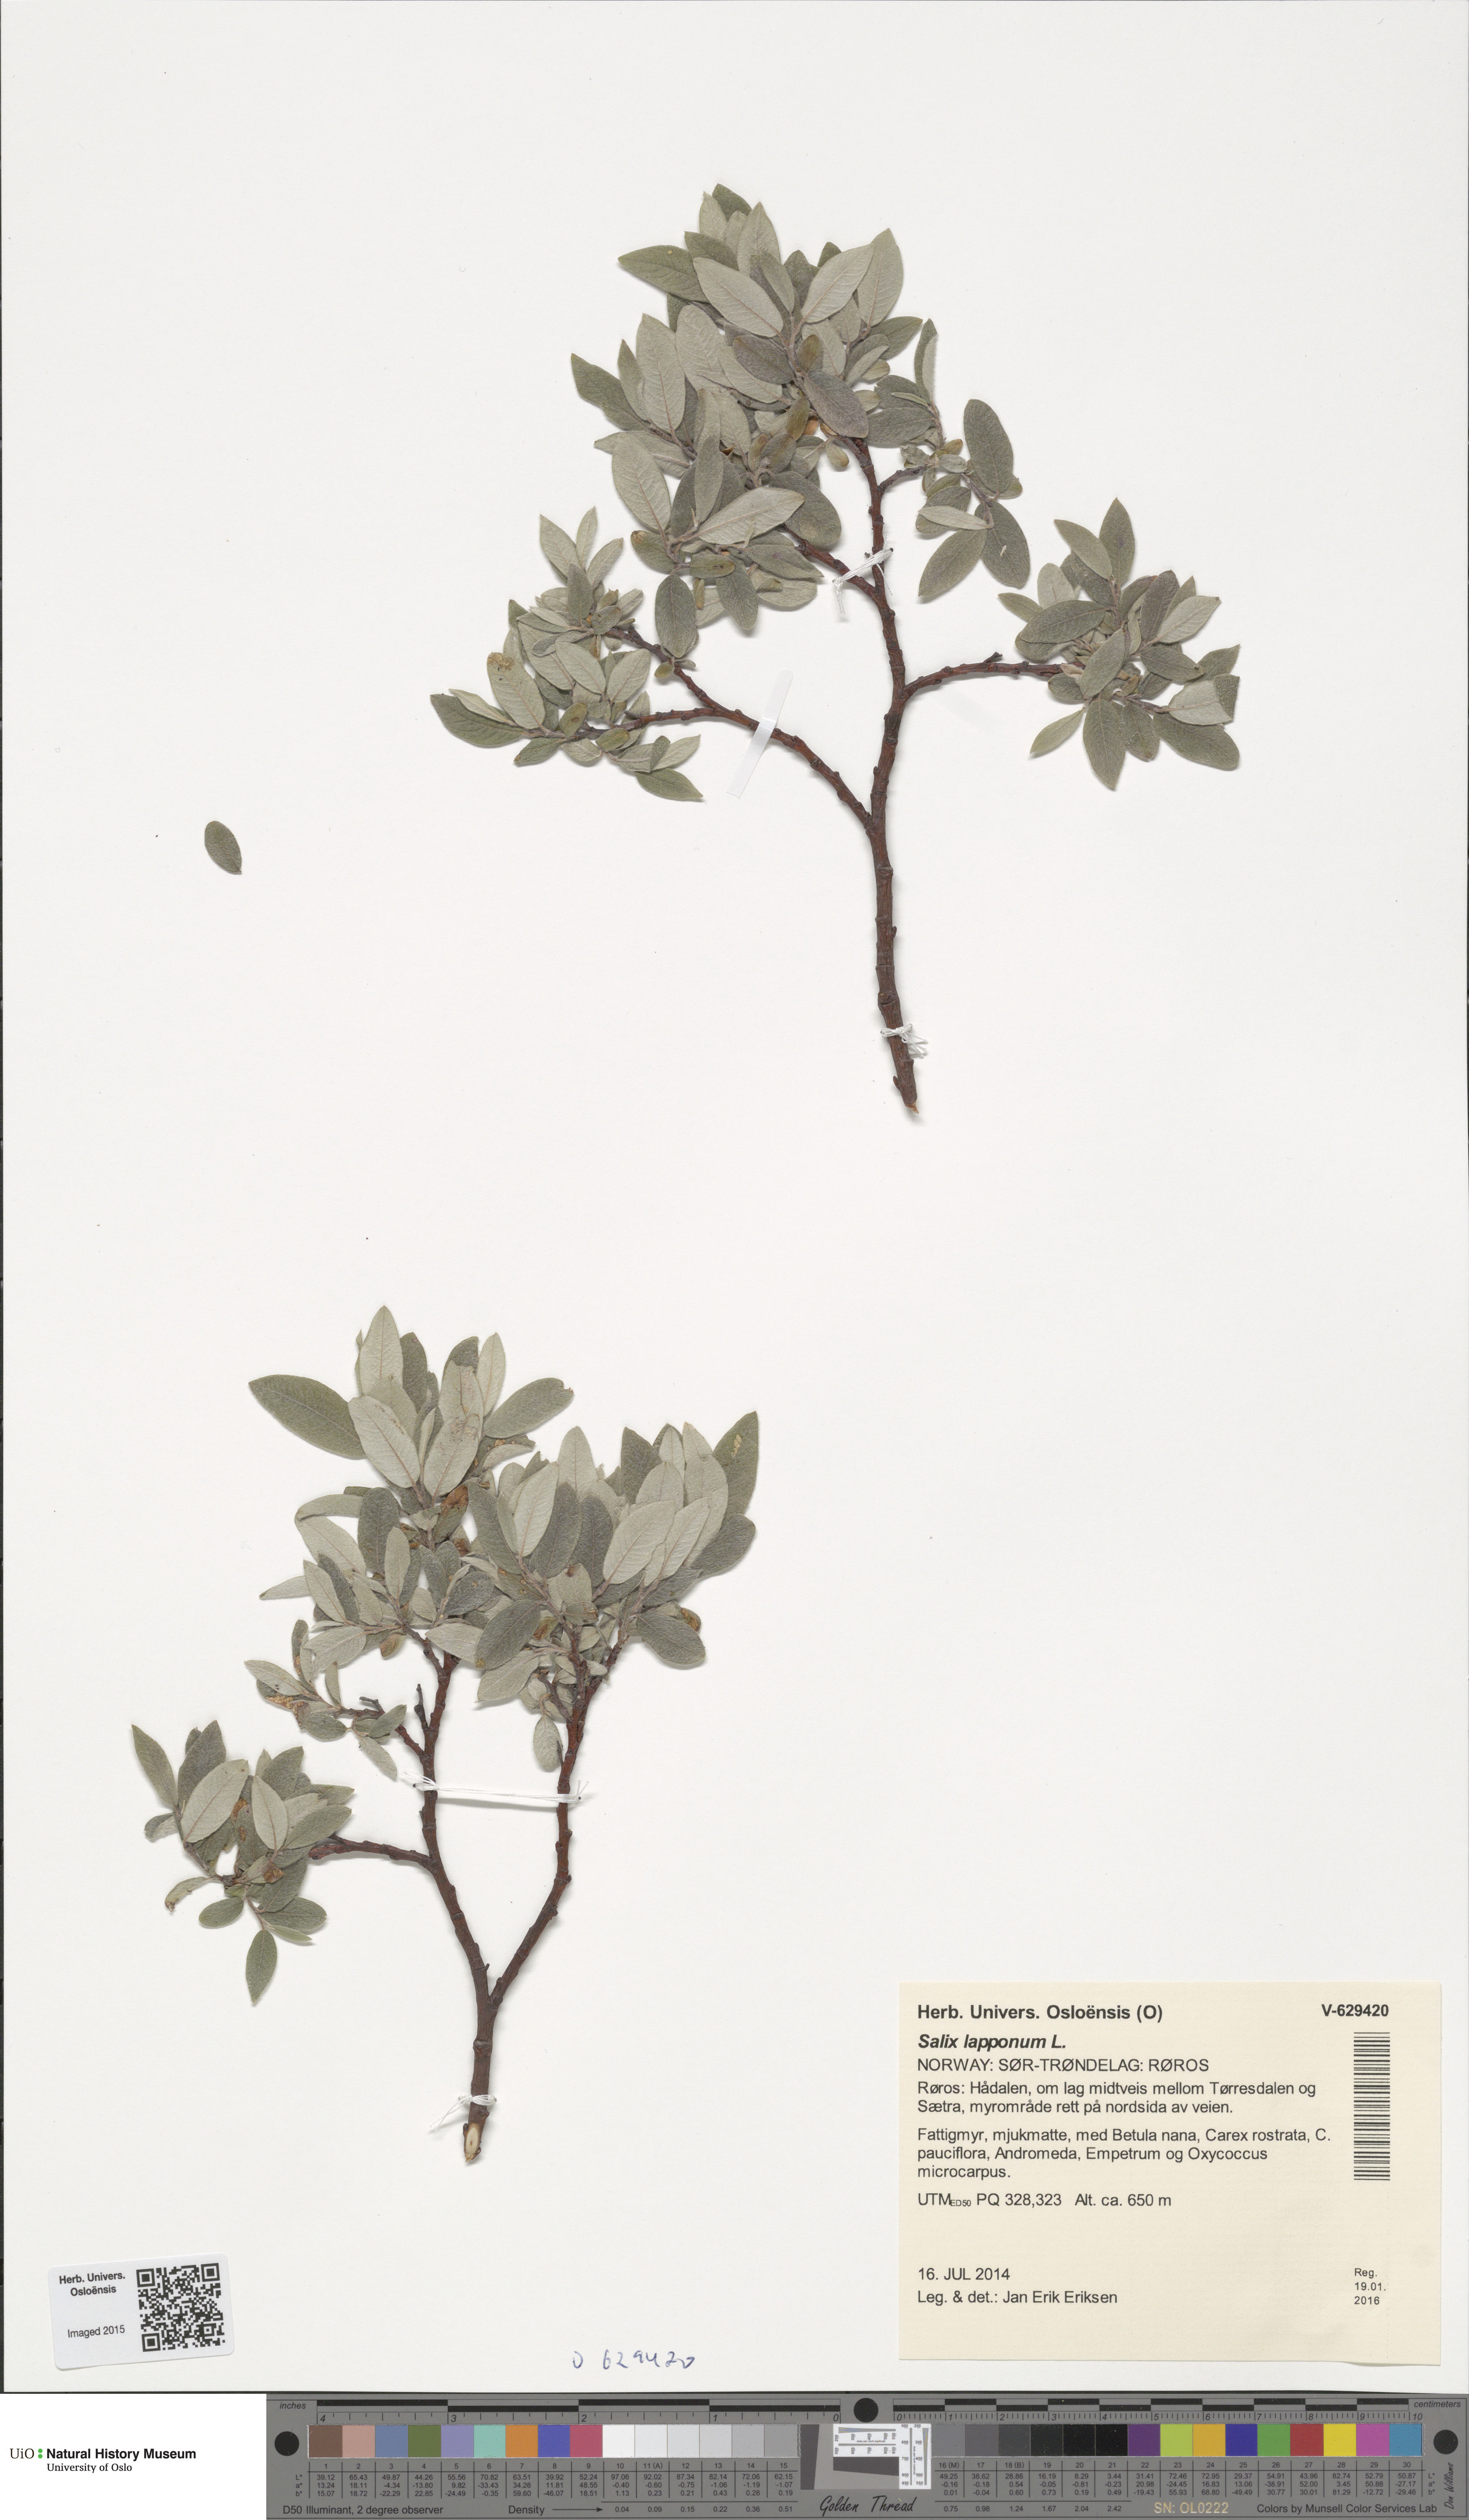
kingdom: Plantae
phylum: Tracheophyta
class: Magnoliopsida
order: Malpighiales
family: Salicaceae
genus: Salix
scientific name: Salix lapponum
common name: Downy willow
